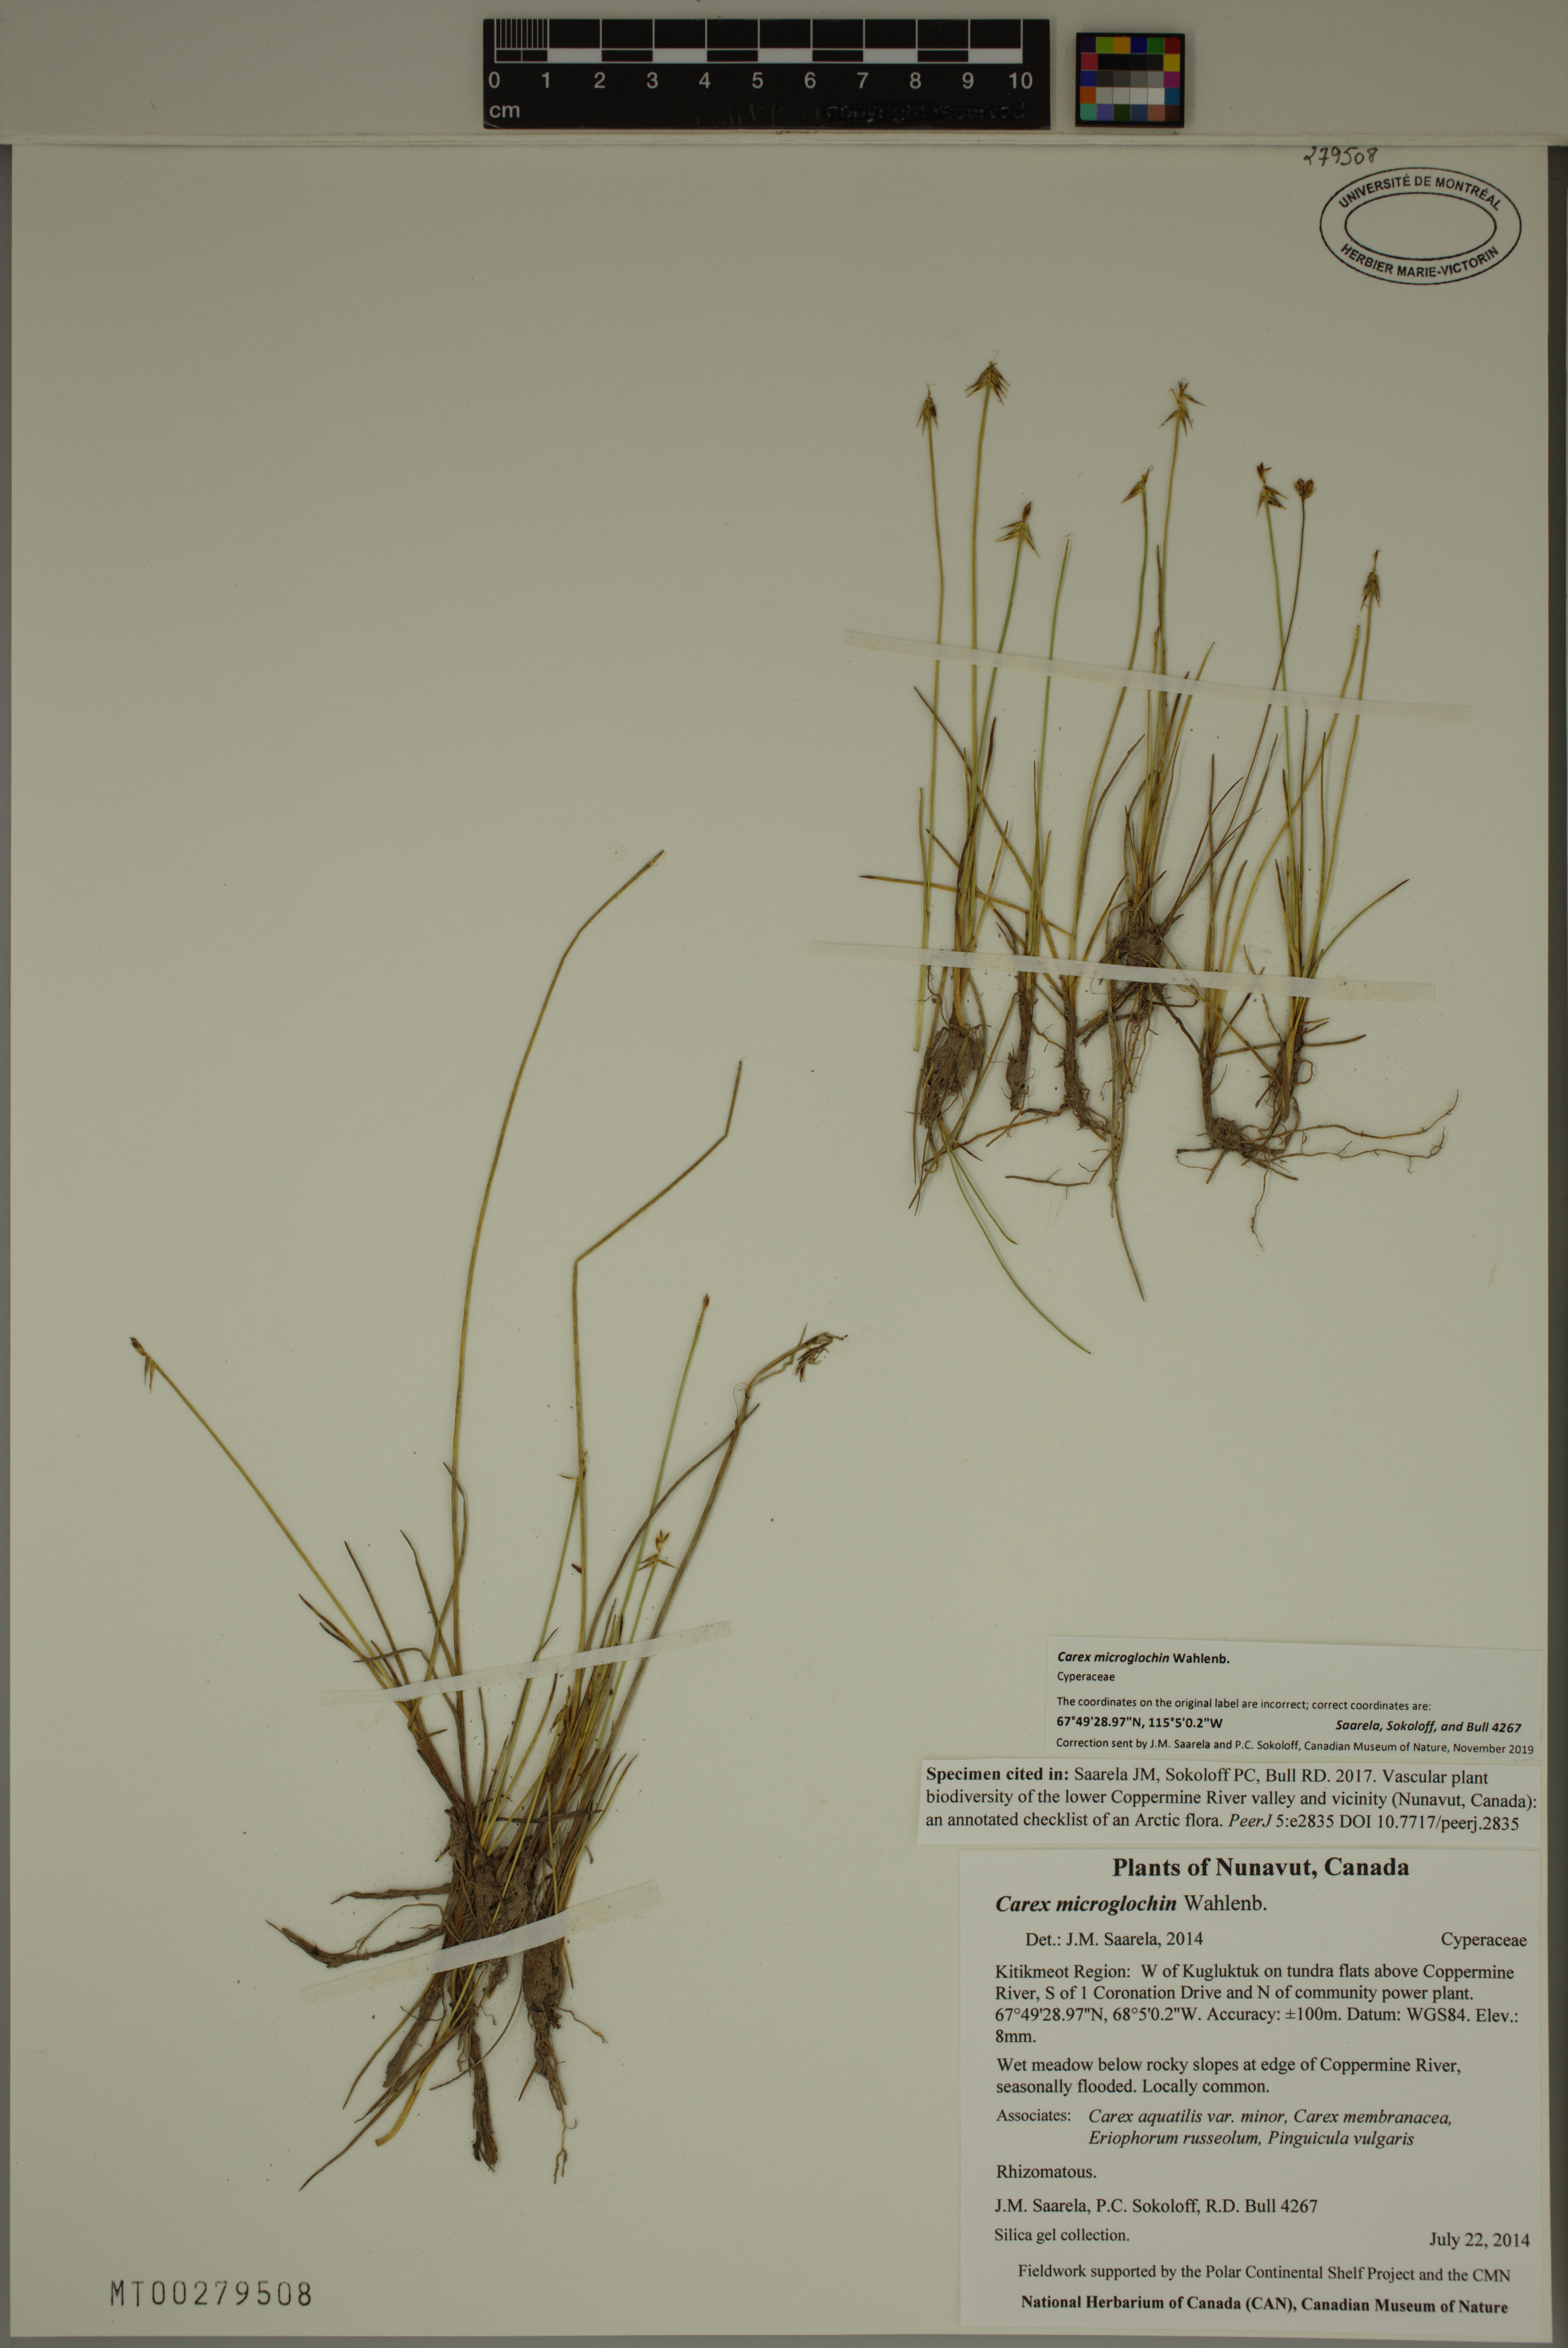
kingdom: Plantae
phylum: Tracheophyta
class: Liliopsida
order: Poales
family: Cyperaceae
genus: Carex
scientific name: Carex microglochin
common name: Bristle sedge
